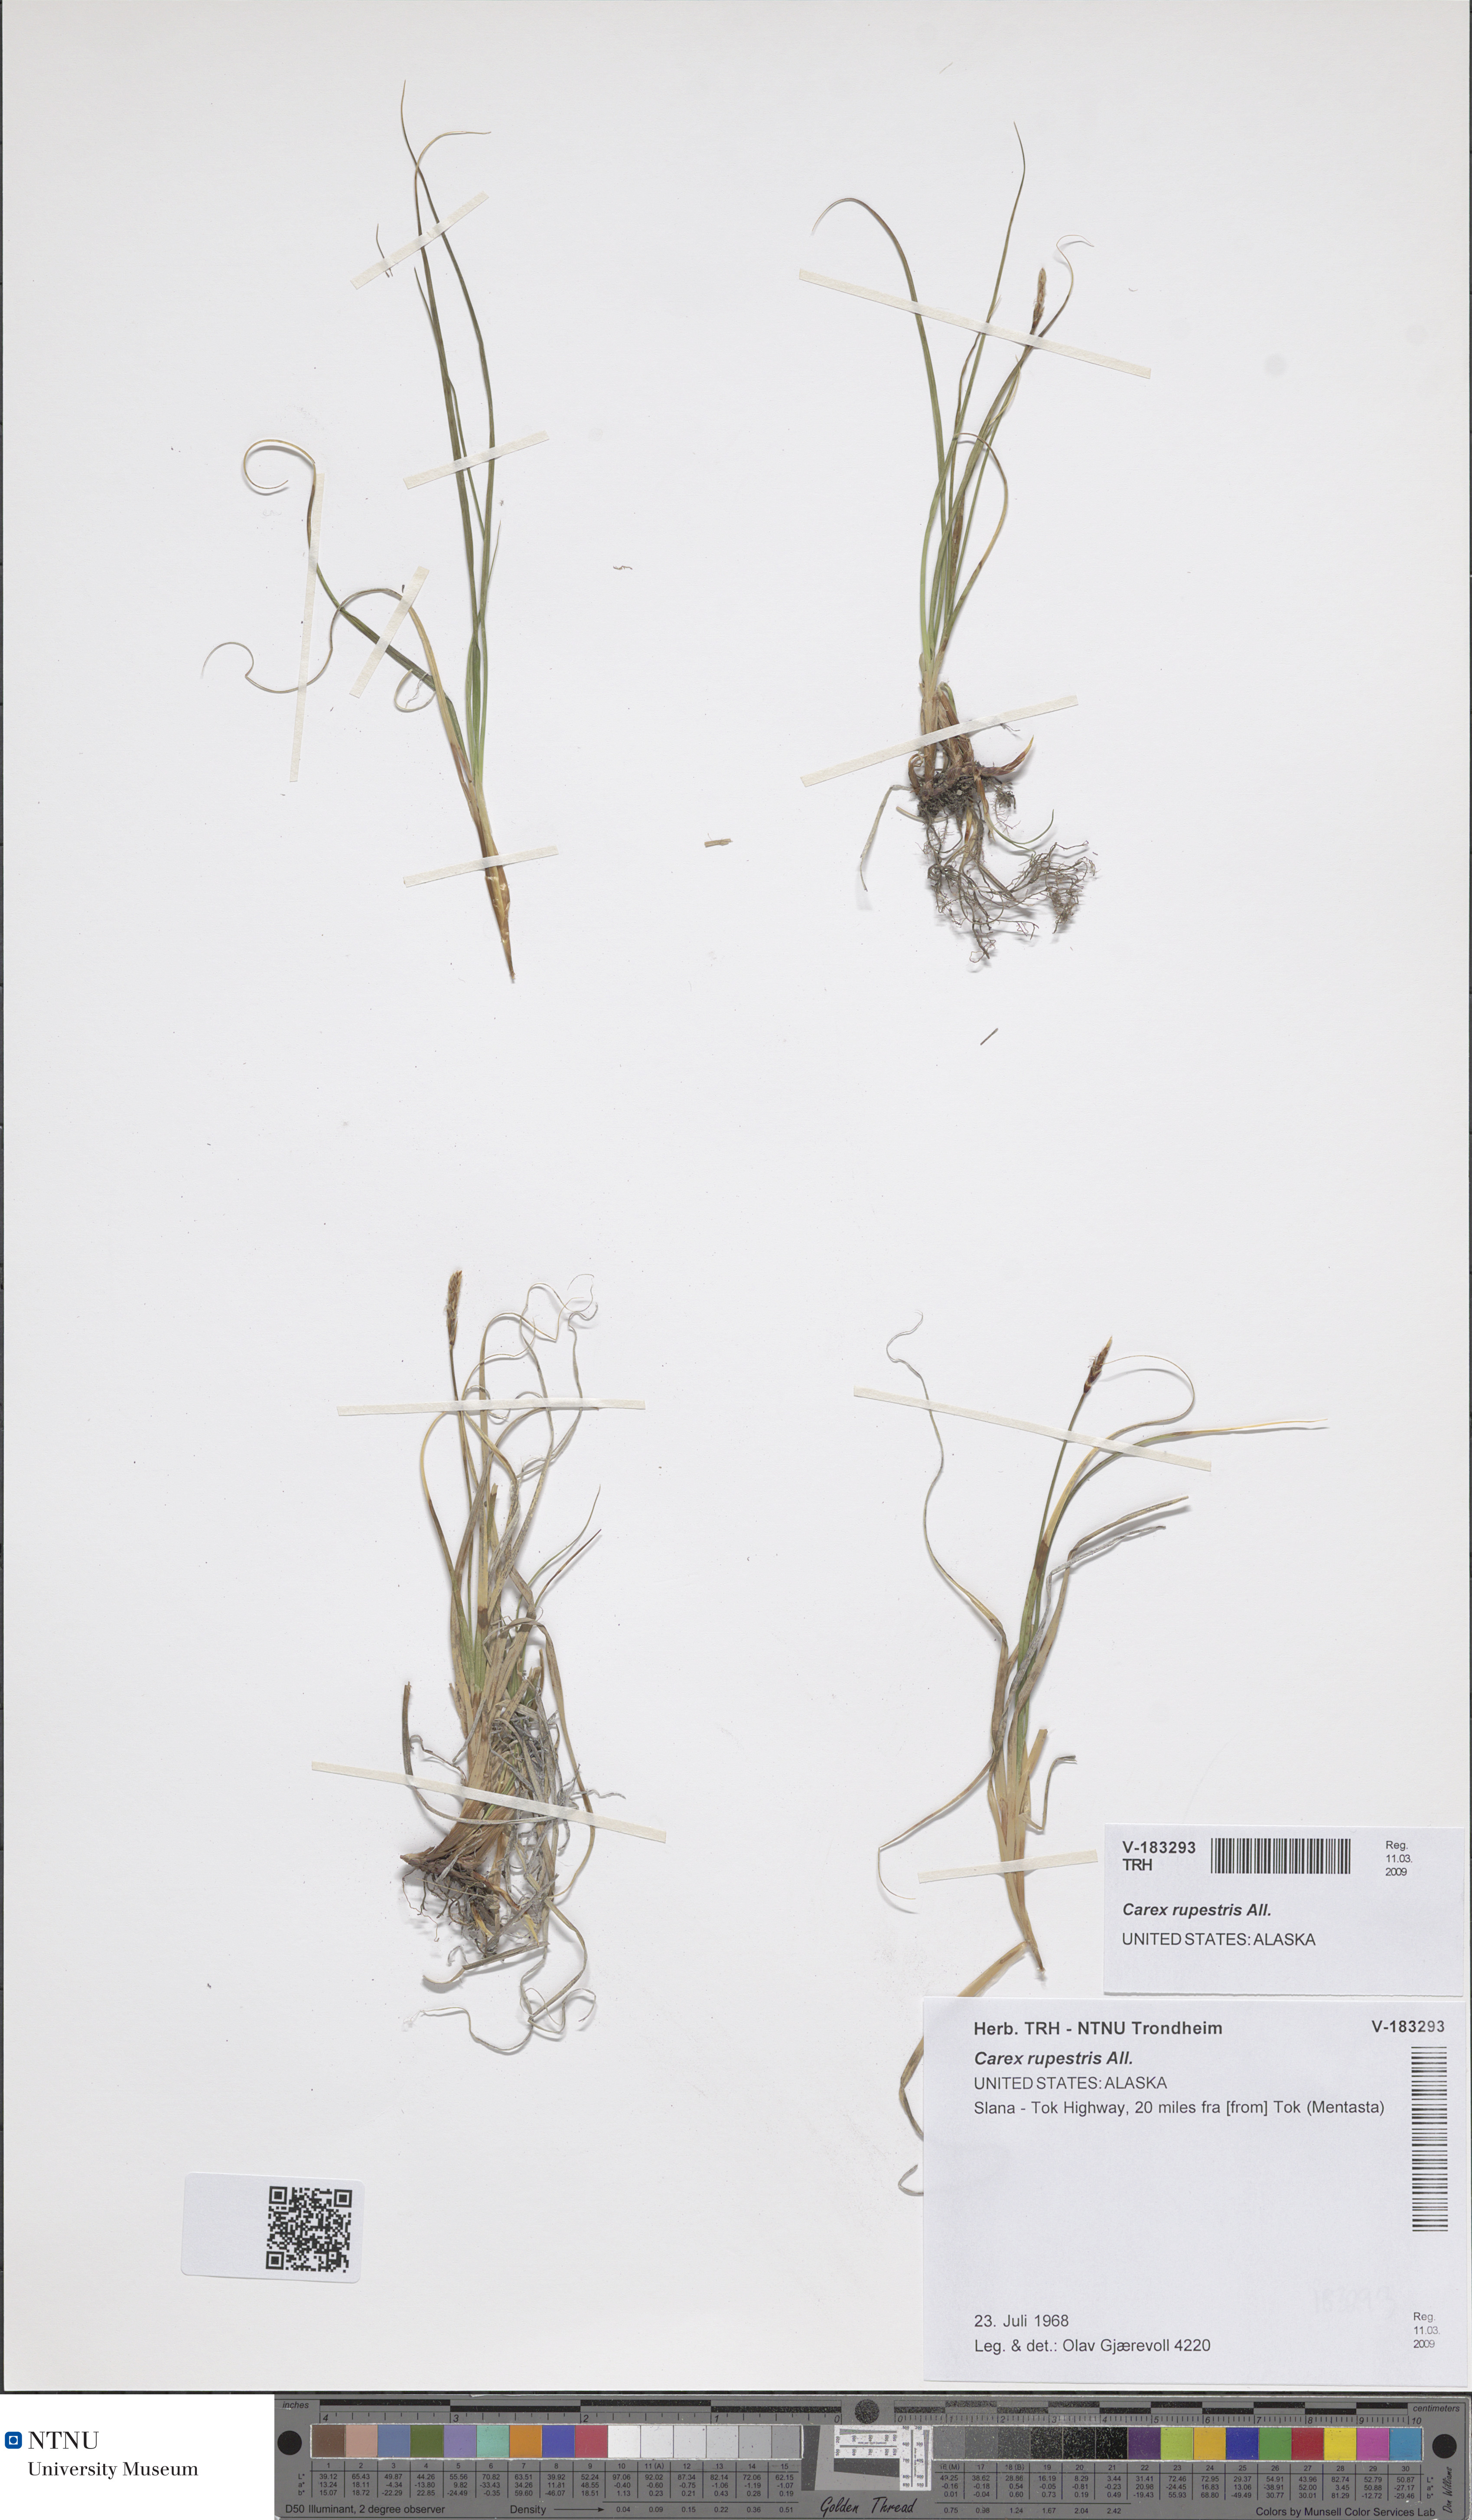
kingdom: Plantae
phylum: Tracheophyta
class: Liliopsida
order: Poales
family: Cyperaceae
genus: Carex
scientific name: Carex rupestris
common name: Rock sedge
